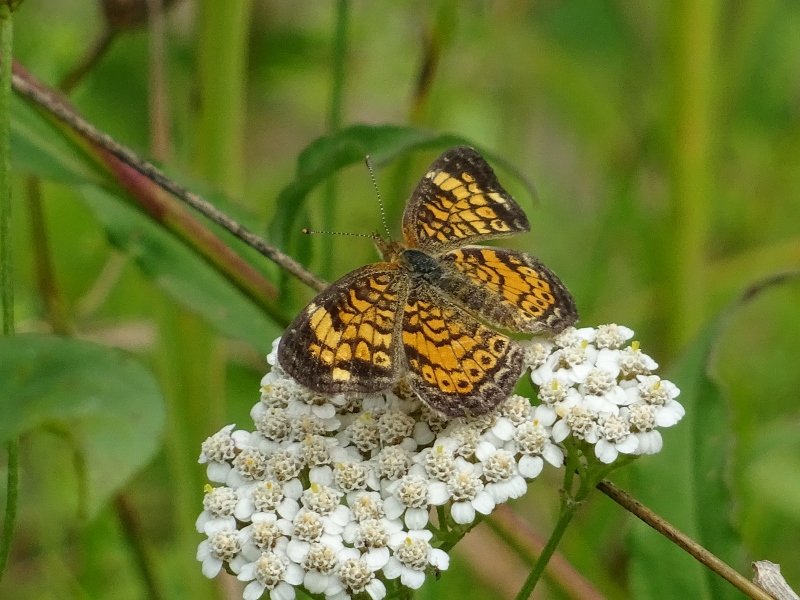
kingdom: Animalia
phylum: Arthropoda
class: Insecta
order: Lepidoptera
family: Nymphalidae
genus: Phyciodes
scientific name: Phyciodes tharos
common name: Northern Crescent
